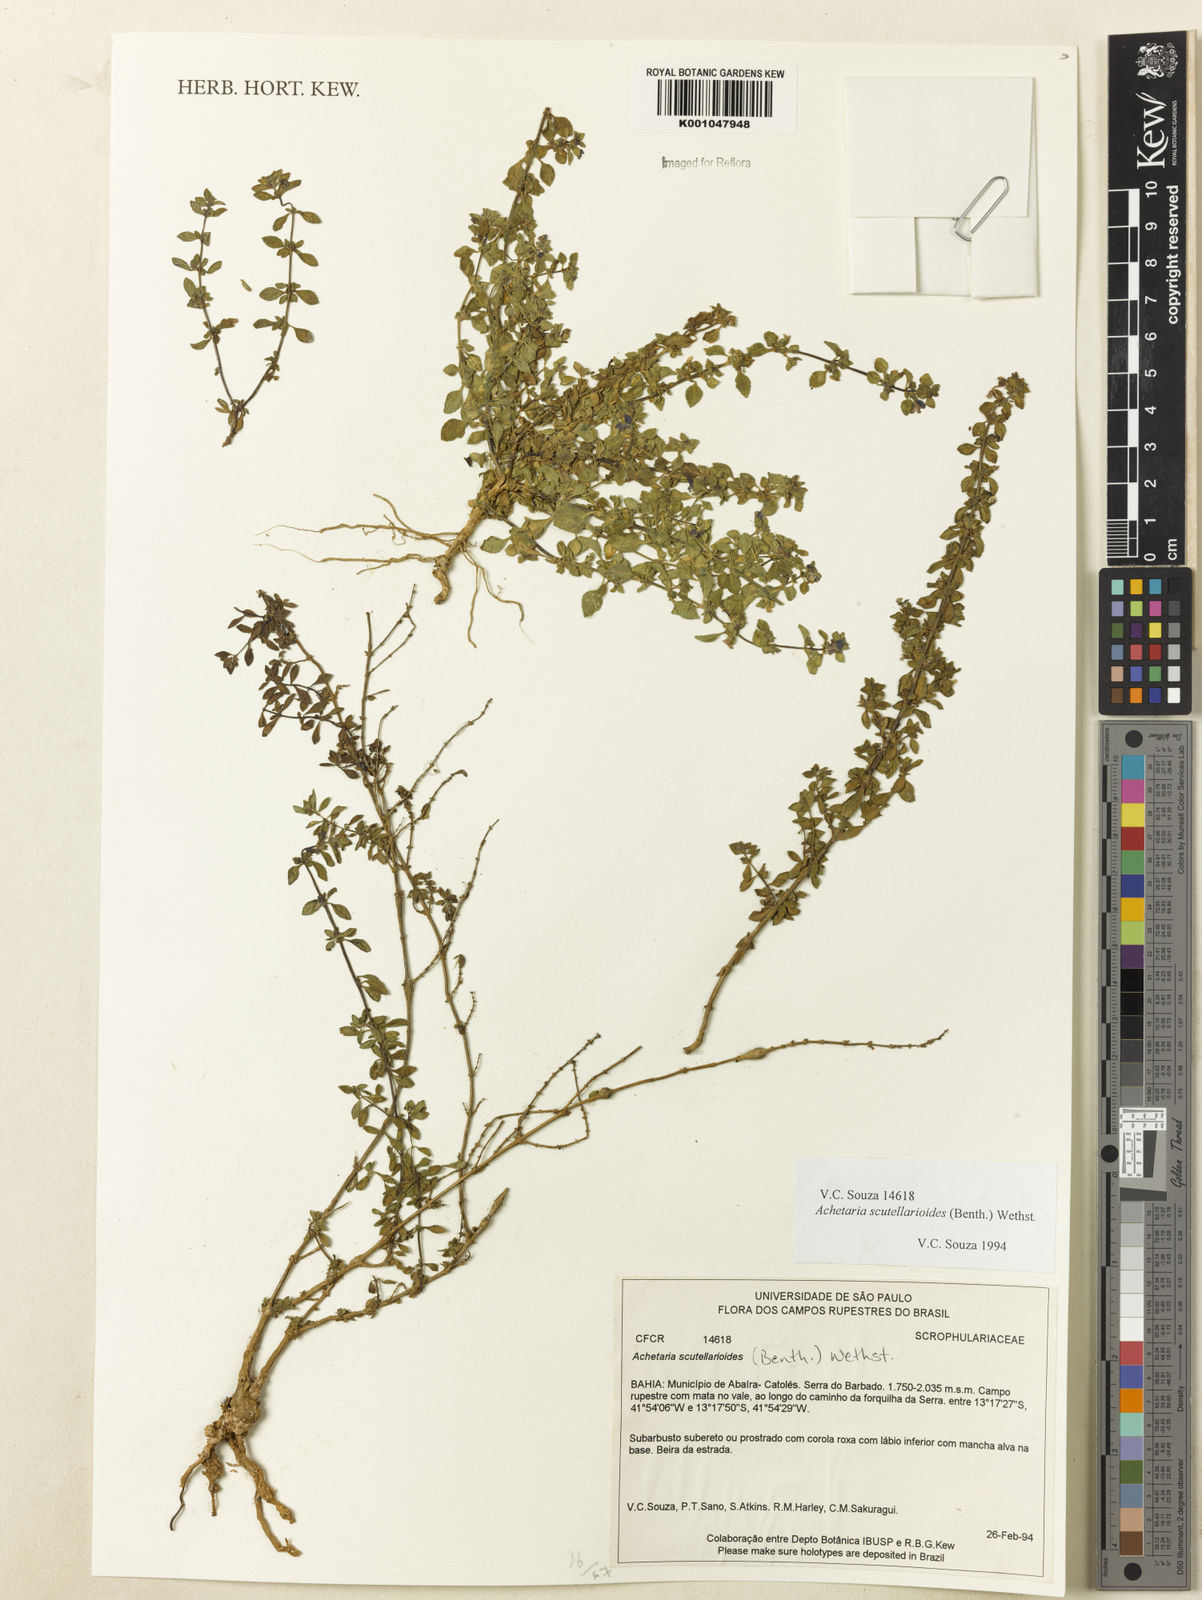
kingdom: Plantae
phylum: Tracheophyta
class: Magnoliopsida
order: Lamiales
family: Plantaginaceae
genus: Matourea
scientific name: Matourea pratensis
